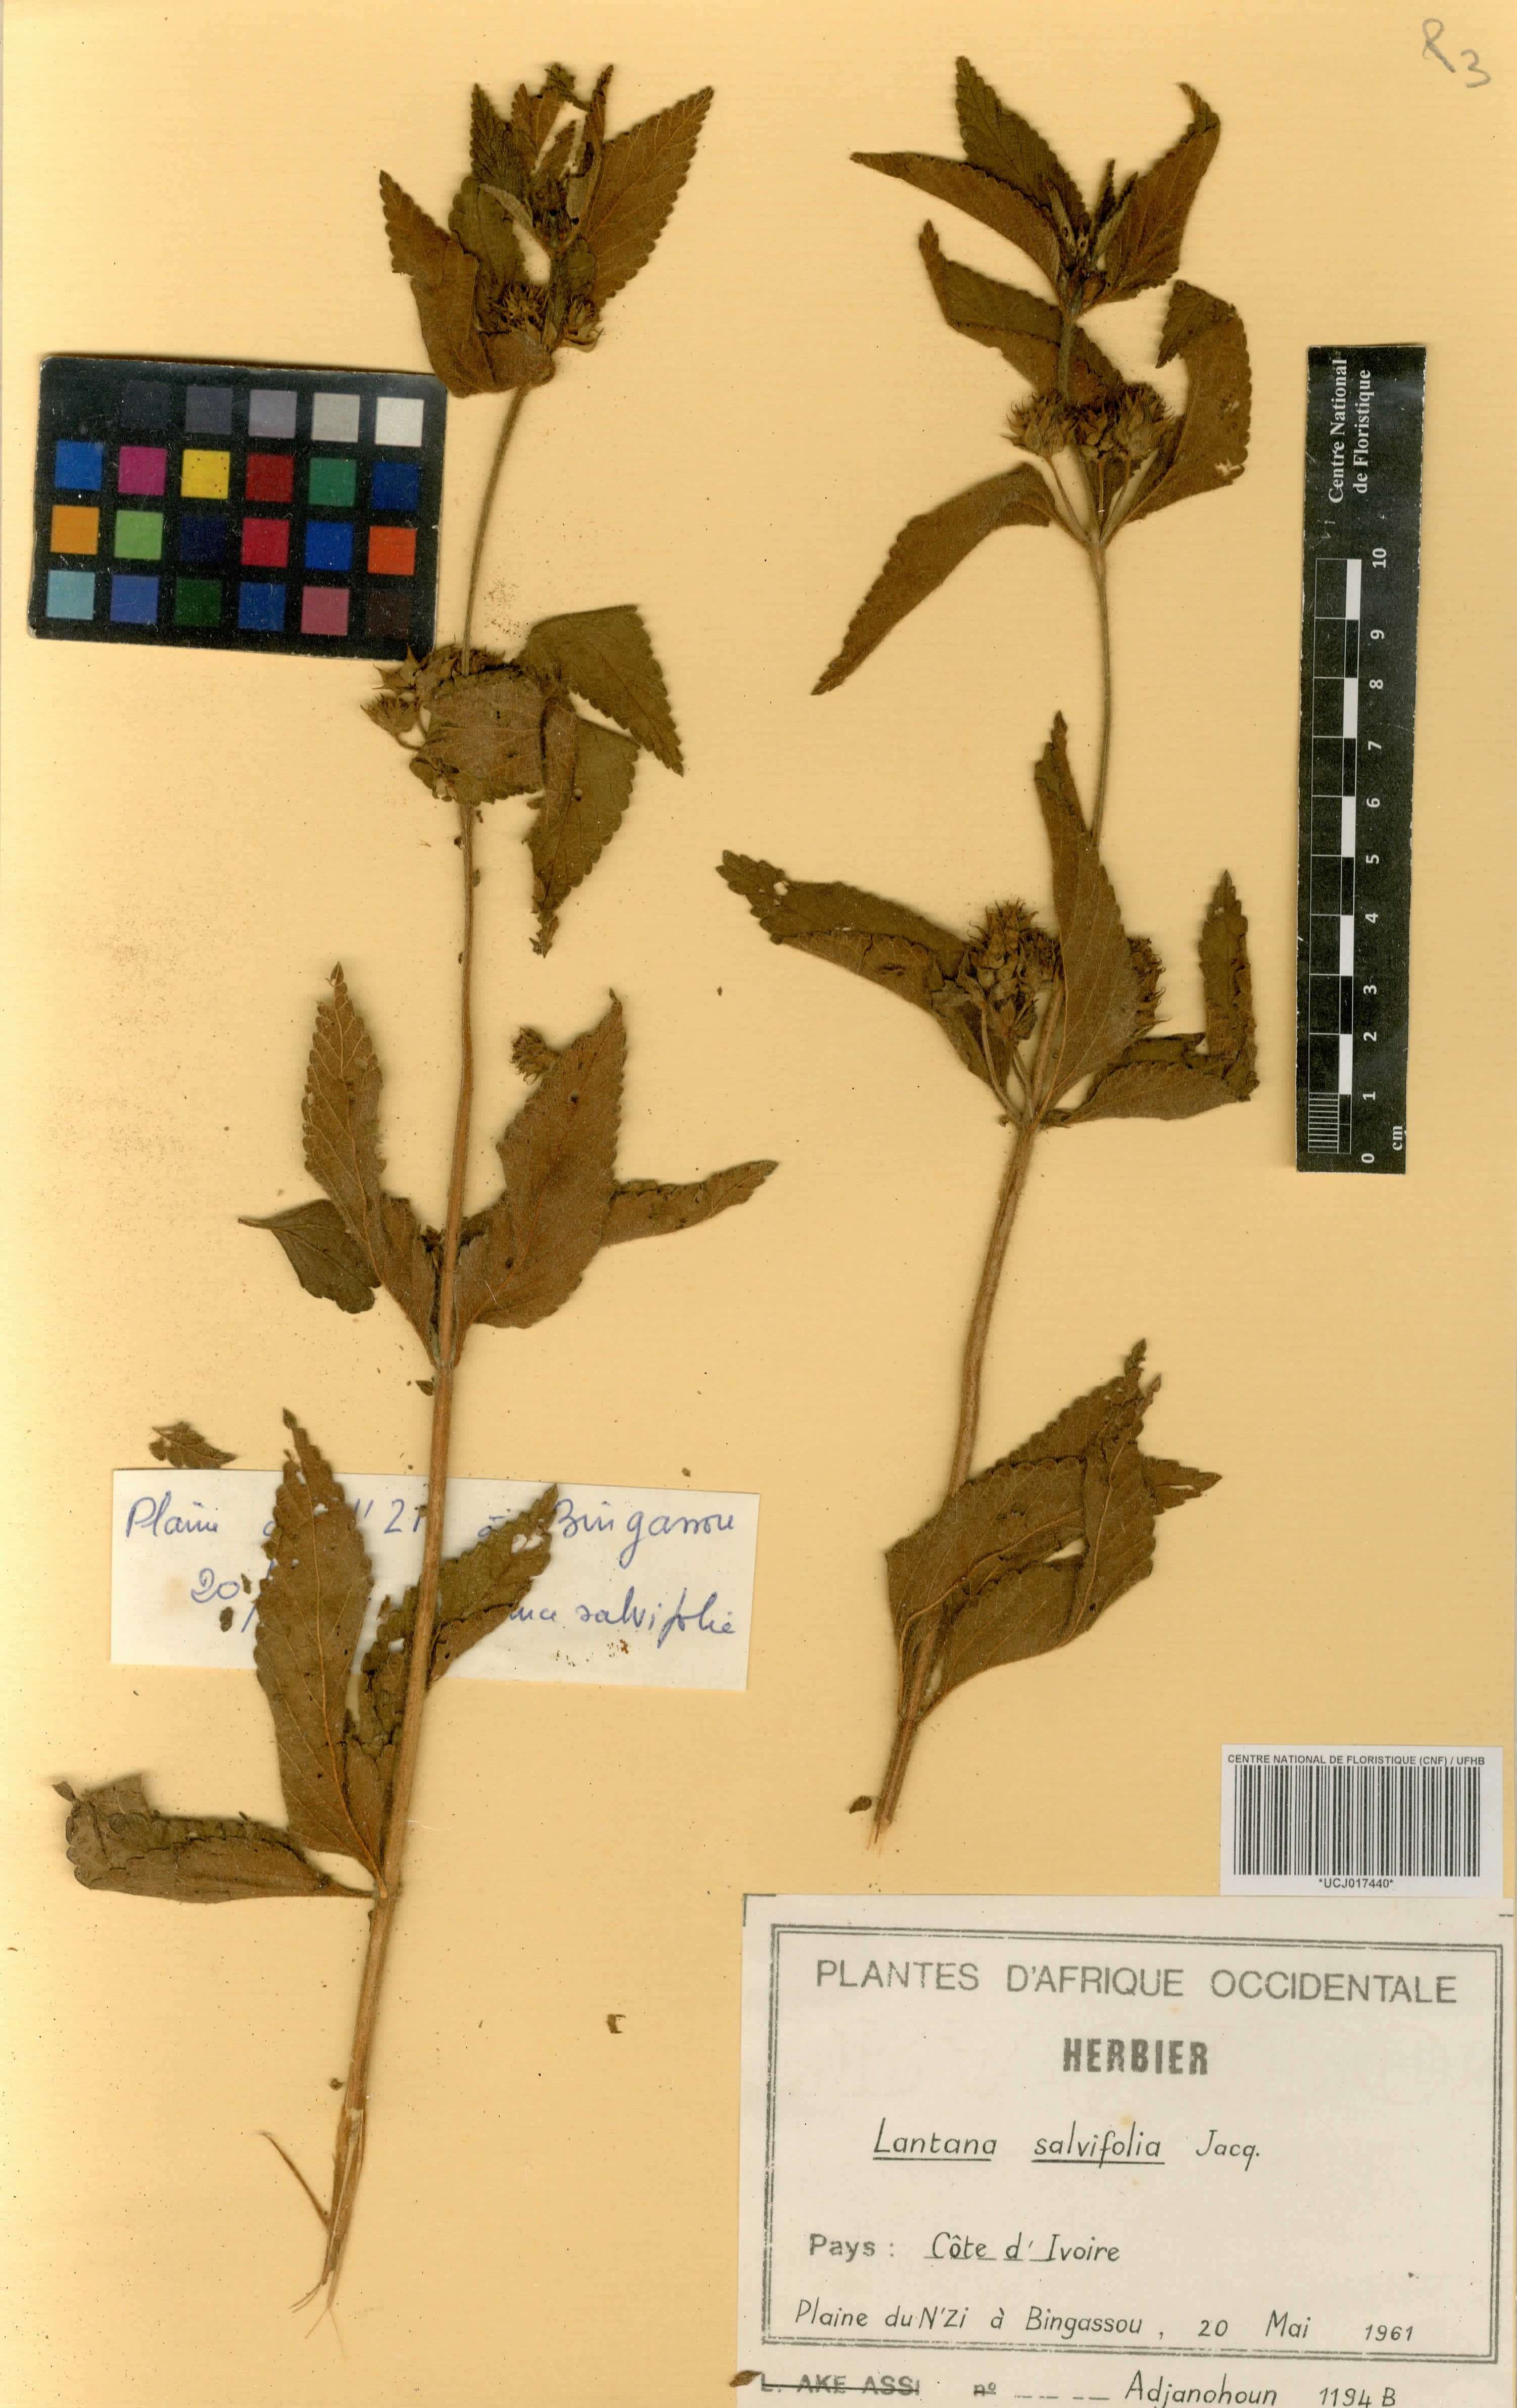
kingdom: Plantae
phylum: Tracheophyta
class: Magnoliopsida
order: Lamiales
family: Verbenaceae
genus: Lantana
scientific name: Lantana rugosa
